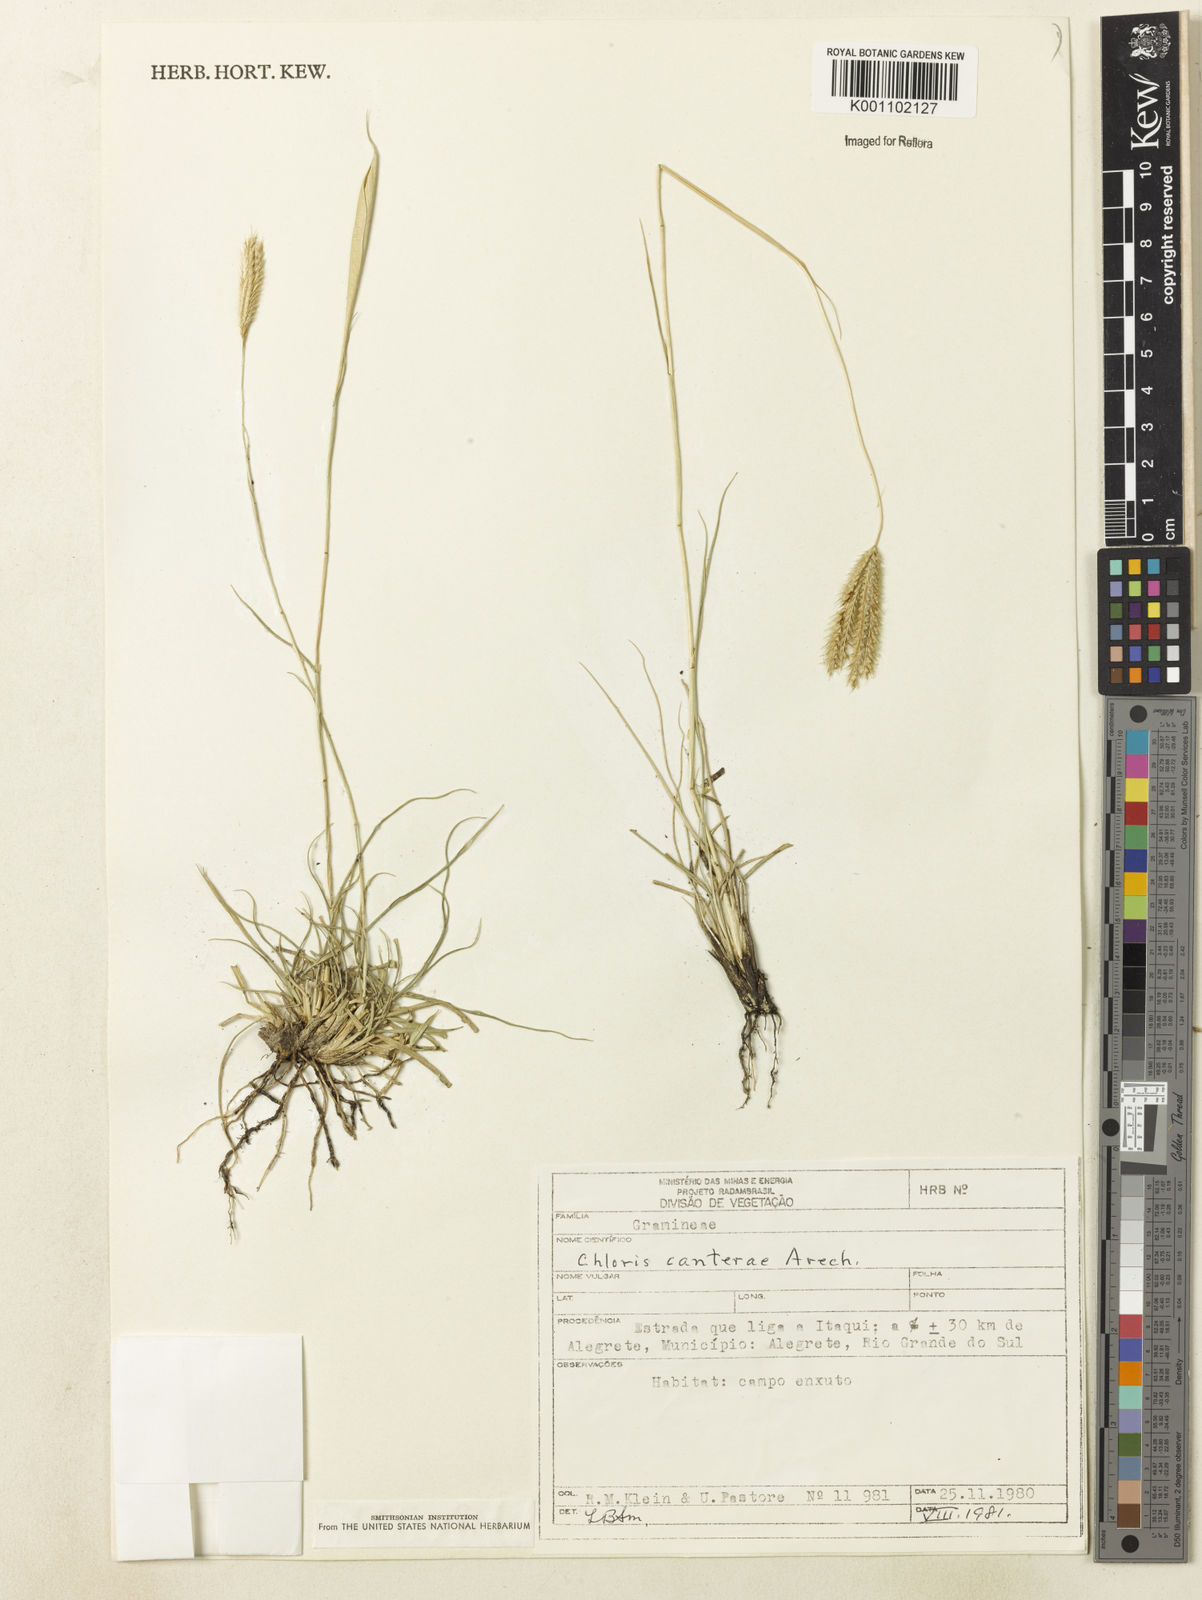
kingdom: Plantae
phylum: Tracheophyta
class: Liliopsida
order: Poales
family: Poaceae
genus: Stapfochloa
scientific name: Stapfochloa grandiflora
